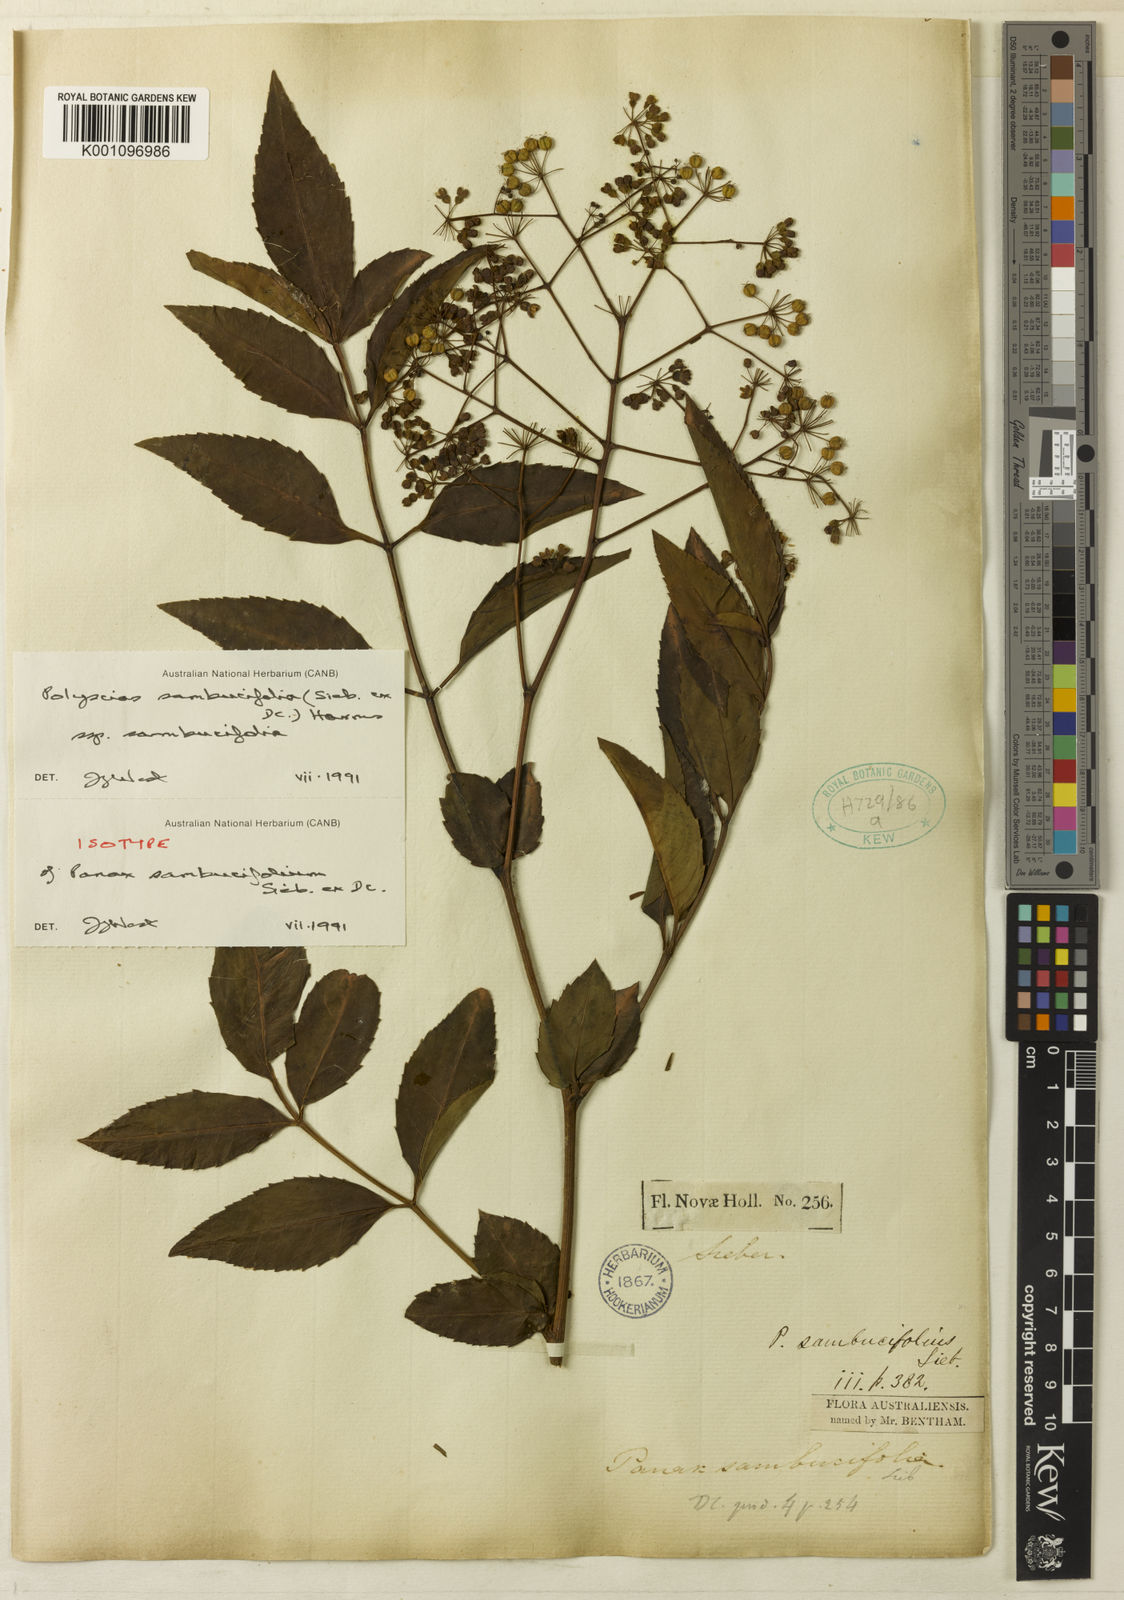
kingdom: Plantae
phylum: Tracheophyta
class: Magnoliopsida
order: Apiales
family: Araliaceae
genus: Polyscias
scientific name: Polyscias sambucifolia
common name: Elderberry-ash
